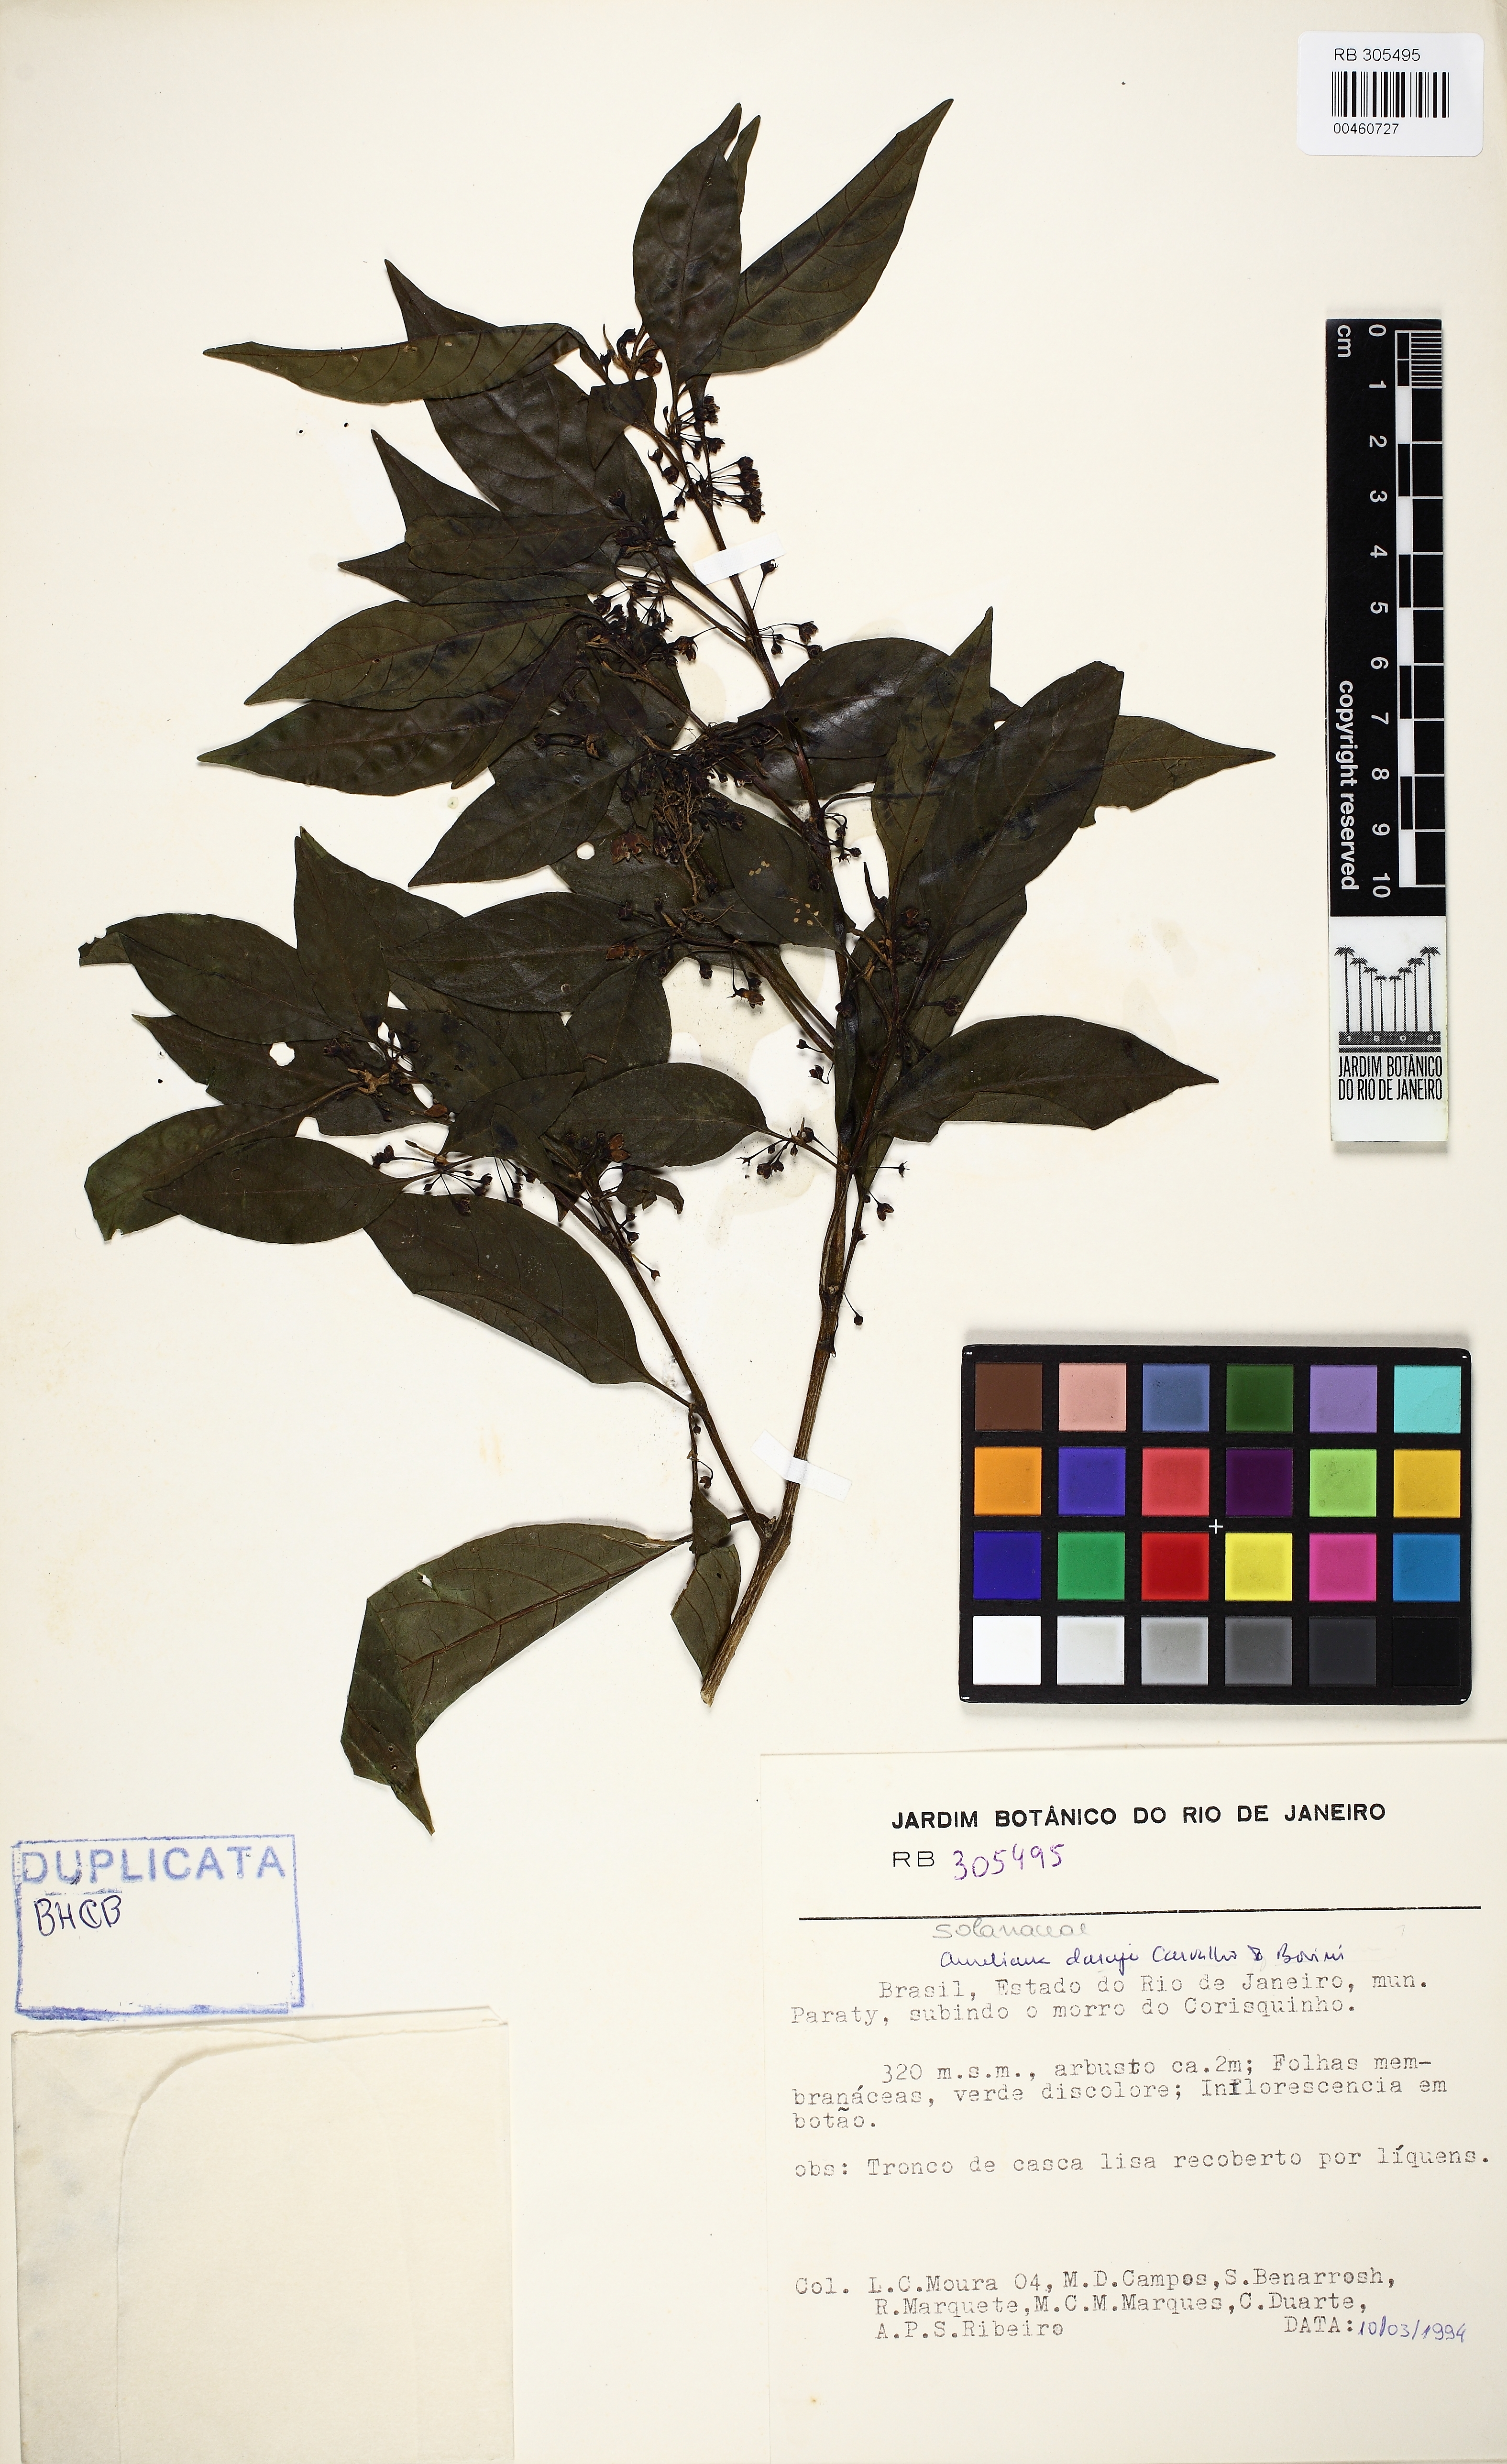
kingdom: Plantae
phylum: Tracheophyta
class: Magnoliopsida
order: Solanales
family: Solanaceae
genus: Athenaea
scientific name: Athenaea fasciculata
